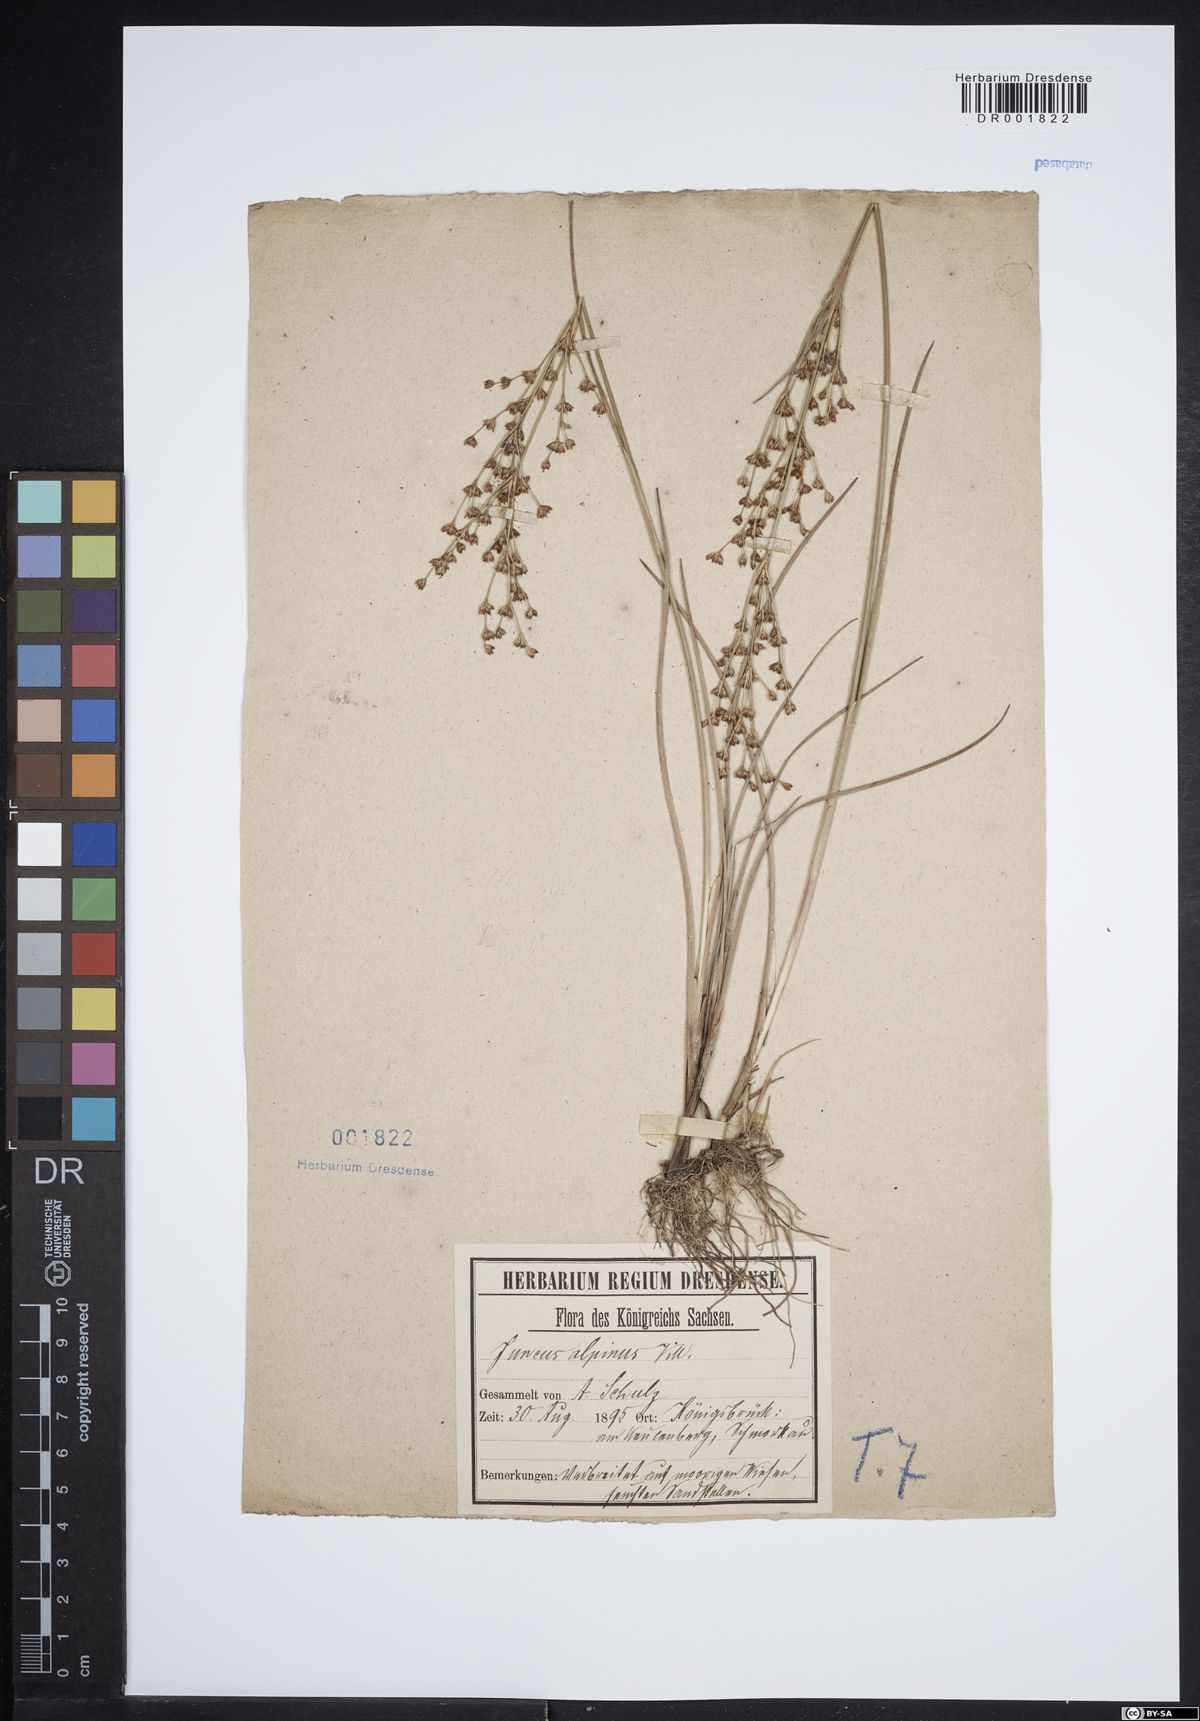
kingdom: Plantae
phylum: Tracheophyta
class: Liliopsida
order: Poales
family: Juncaceae
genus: Juncus
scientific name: Juncus alpinoarticulatus
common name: Alpine rush
